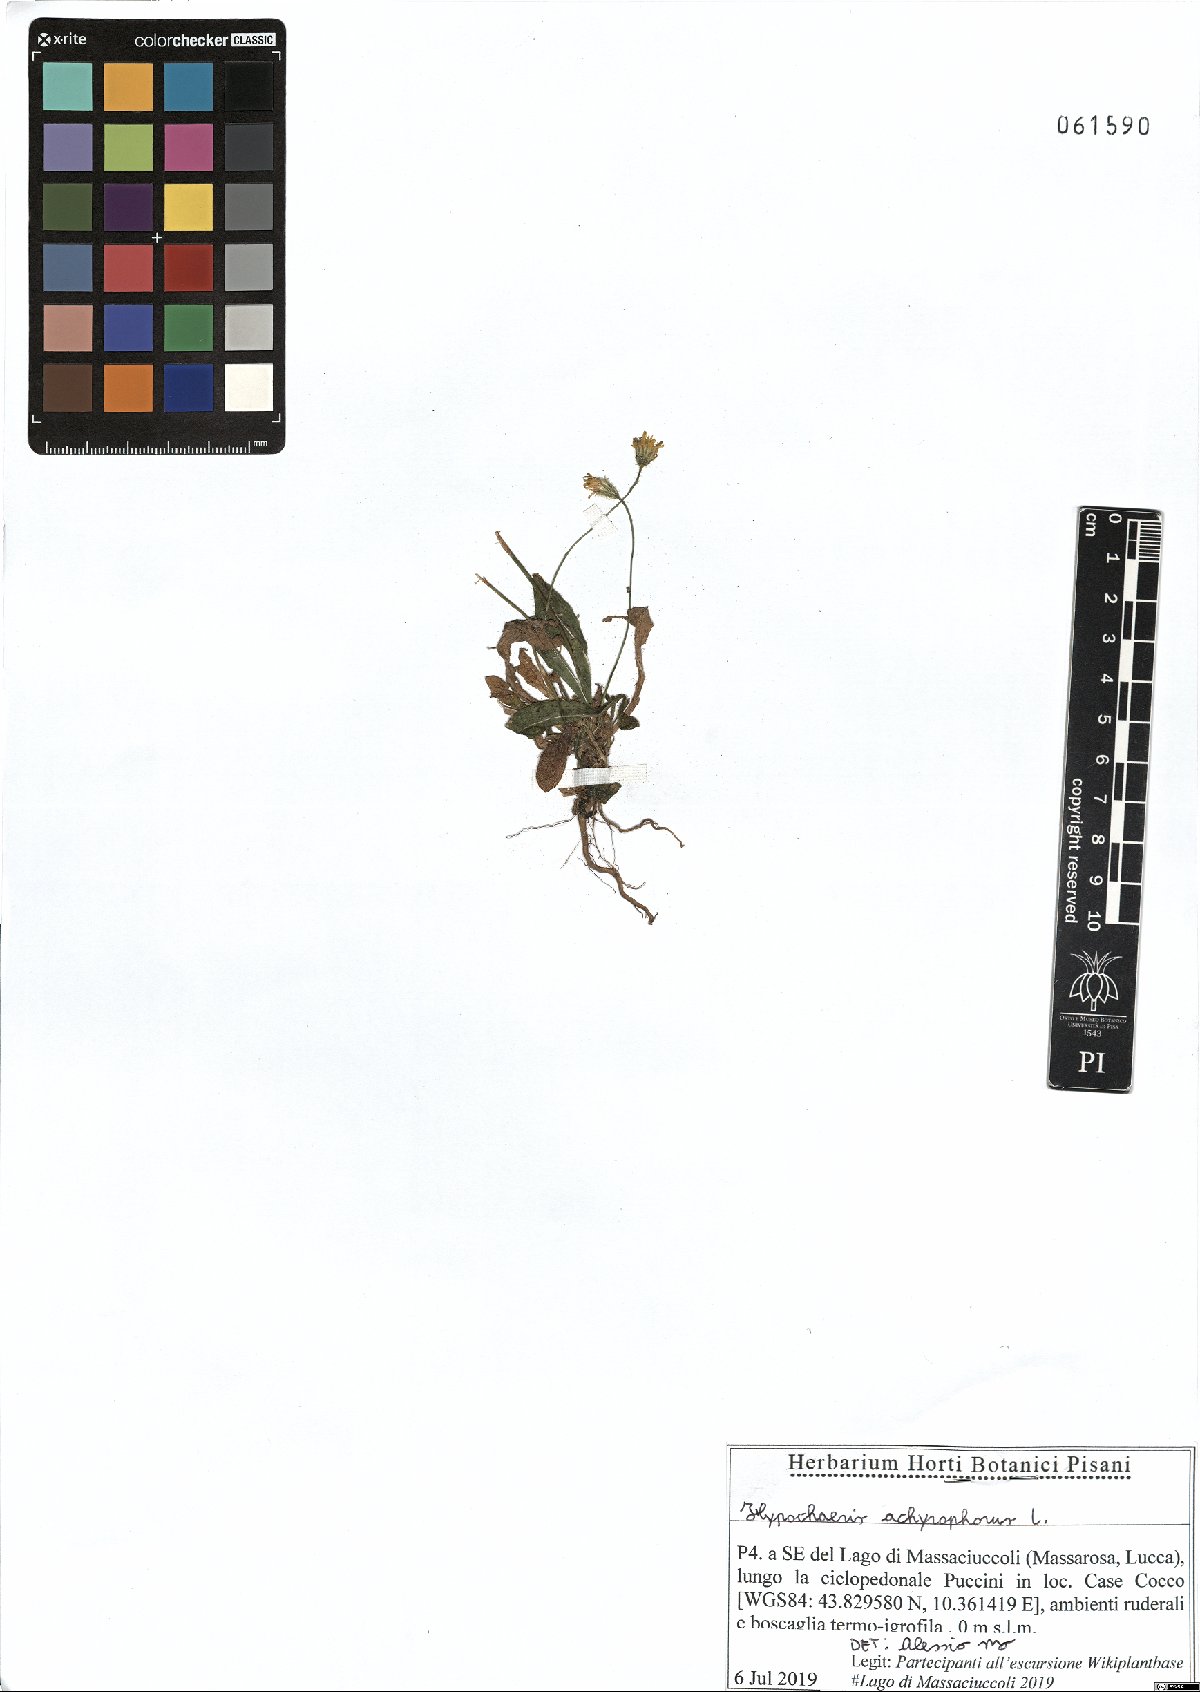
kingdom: Plantae
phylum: Tracheophyta
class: Magnoliopsida
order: Asterales
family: Asteraceae
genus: Achyrophorus
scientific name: Achyrophorus valdesii
